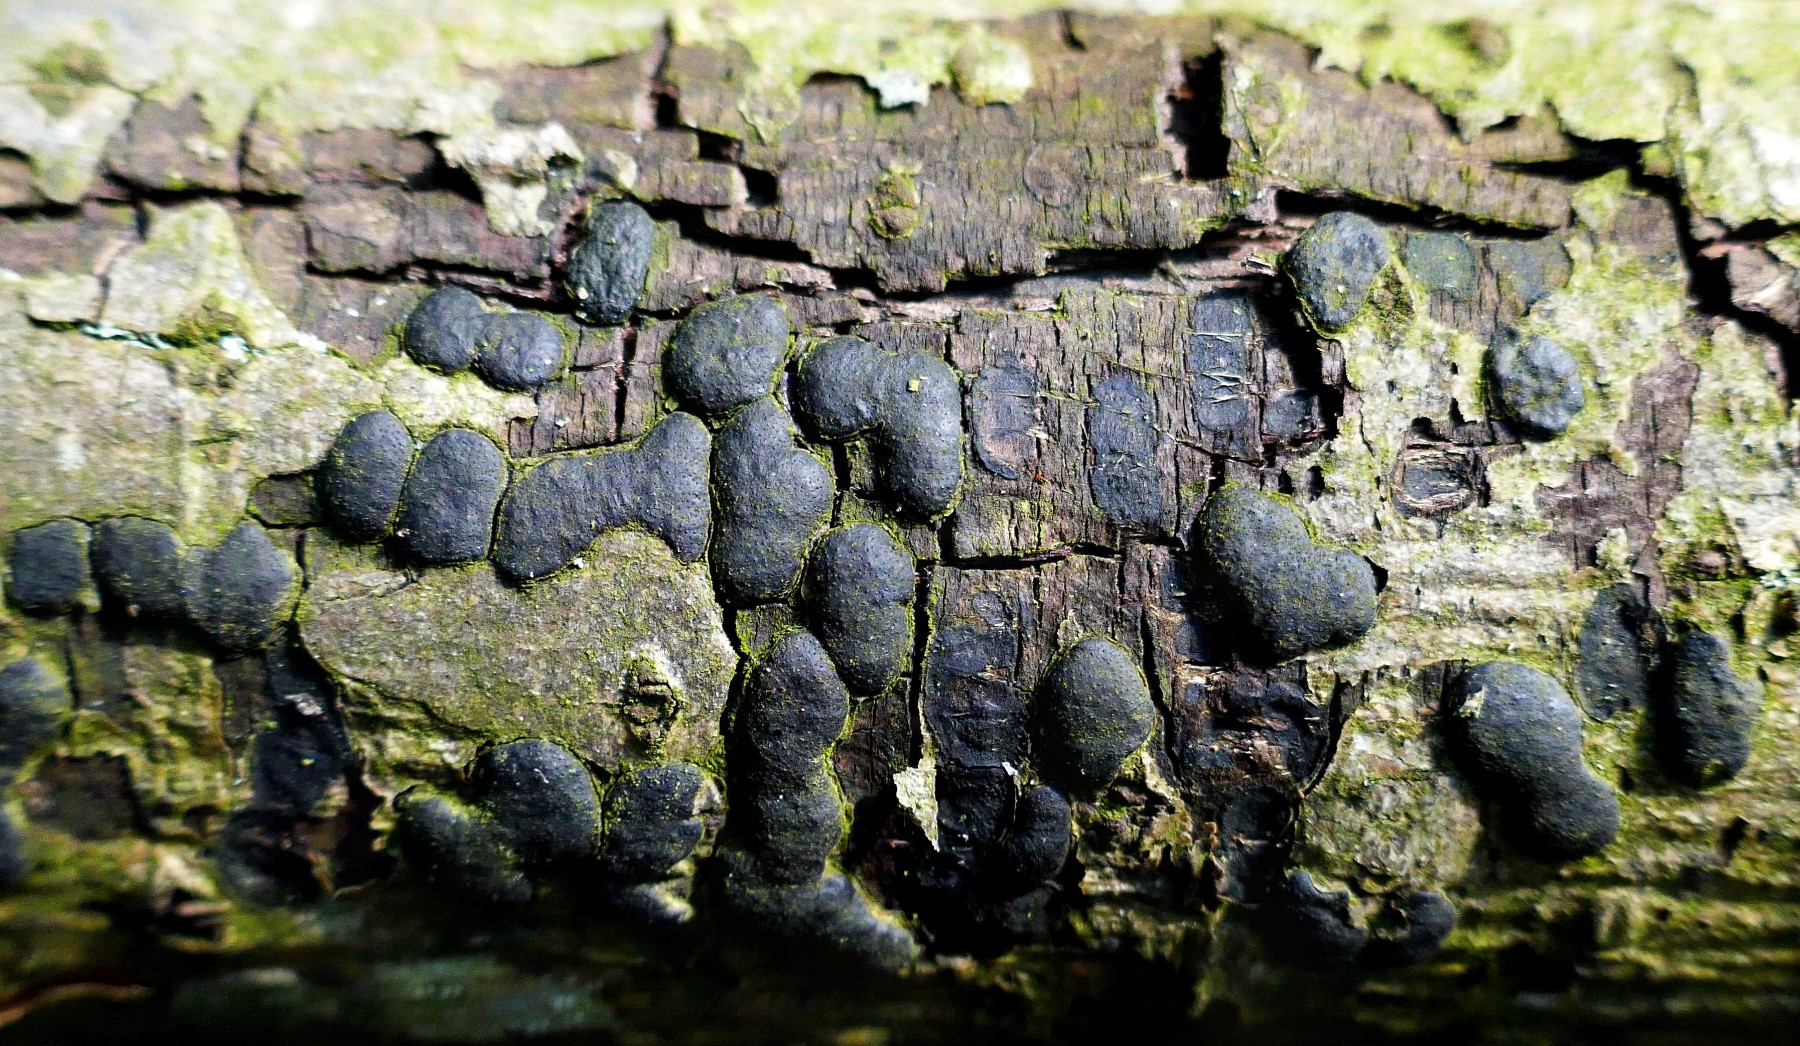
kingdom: Fungi
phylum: Ascomycota
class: Sordariomycetes
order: Xylariales
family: Diatrypaceae
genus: Diatrype
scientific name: Diatrype bullata
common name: pile-kulskorpe
